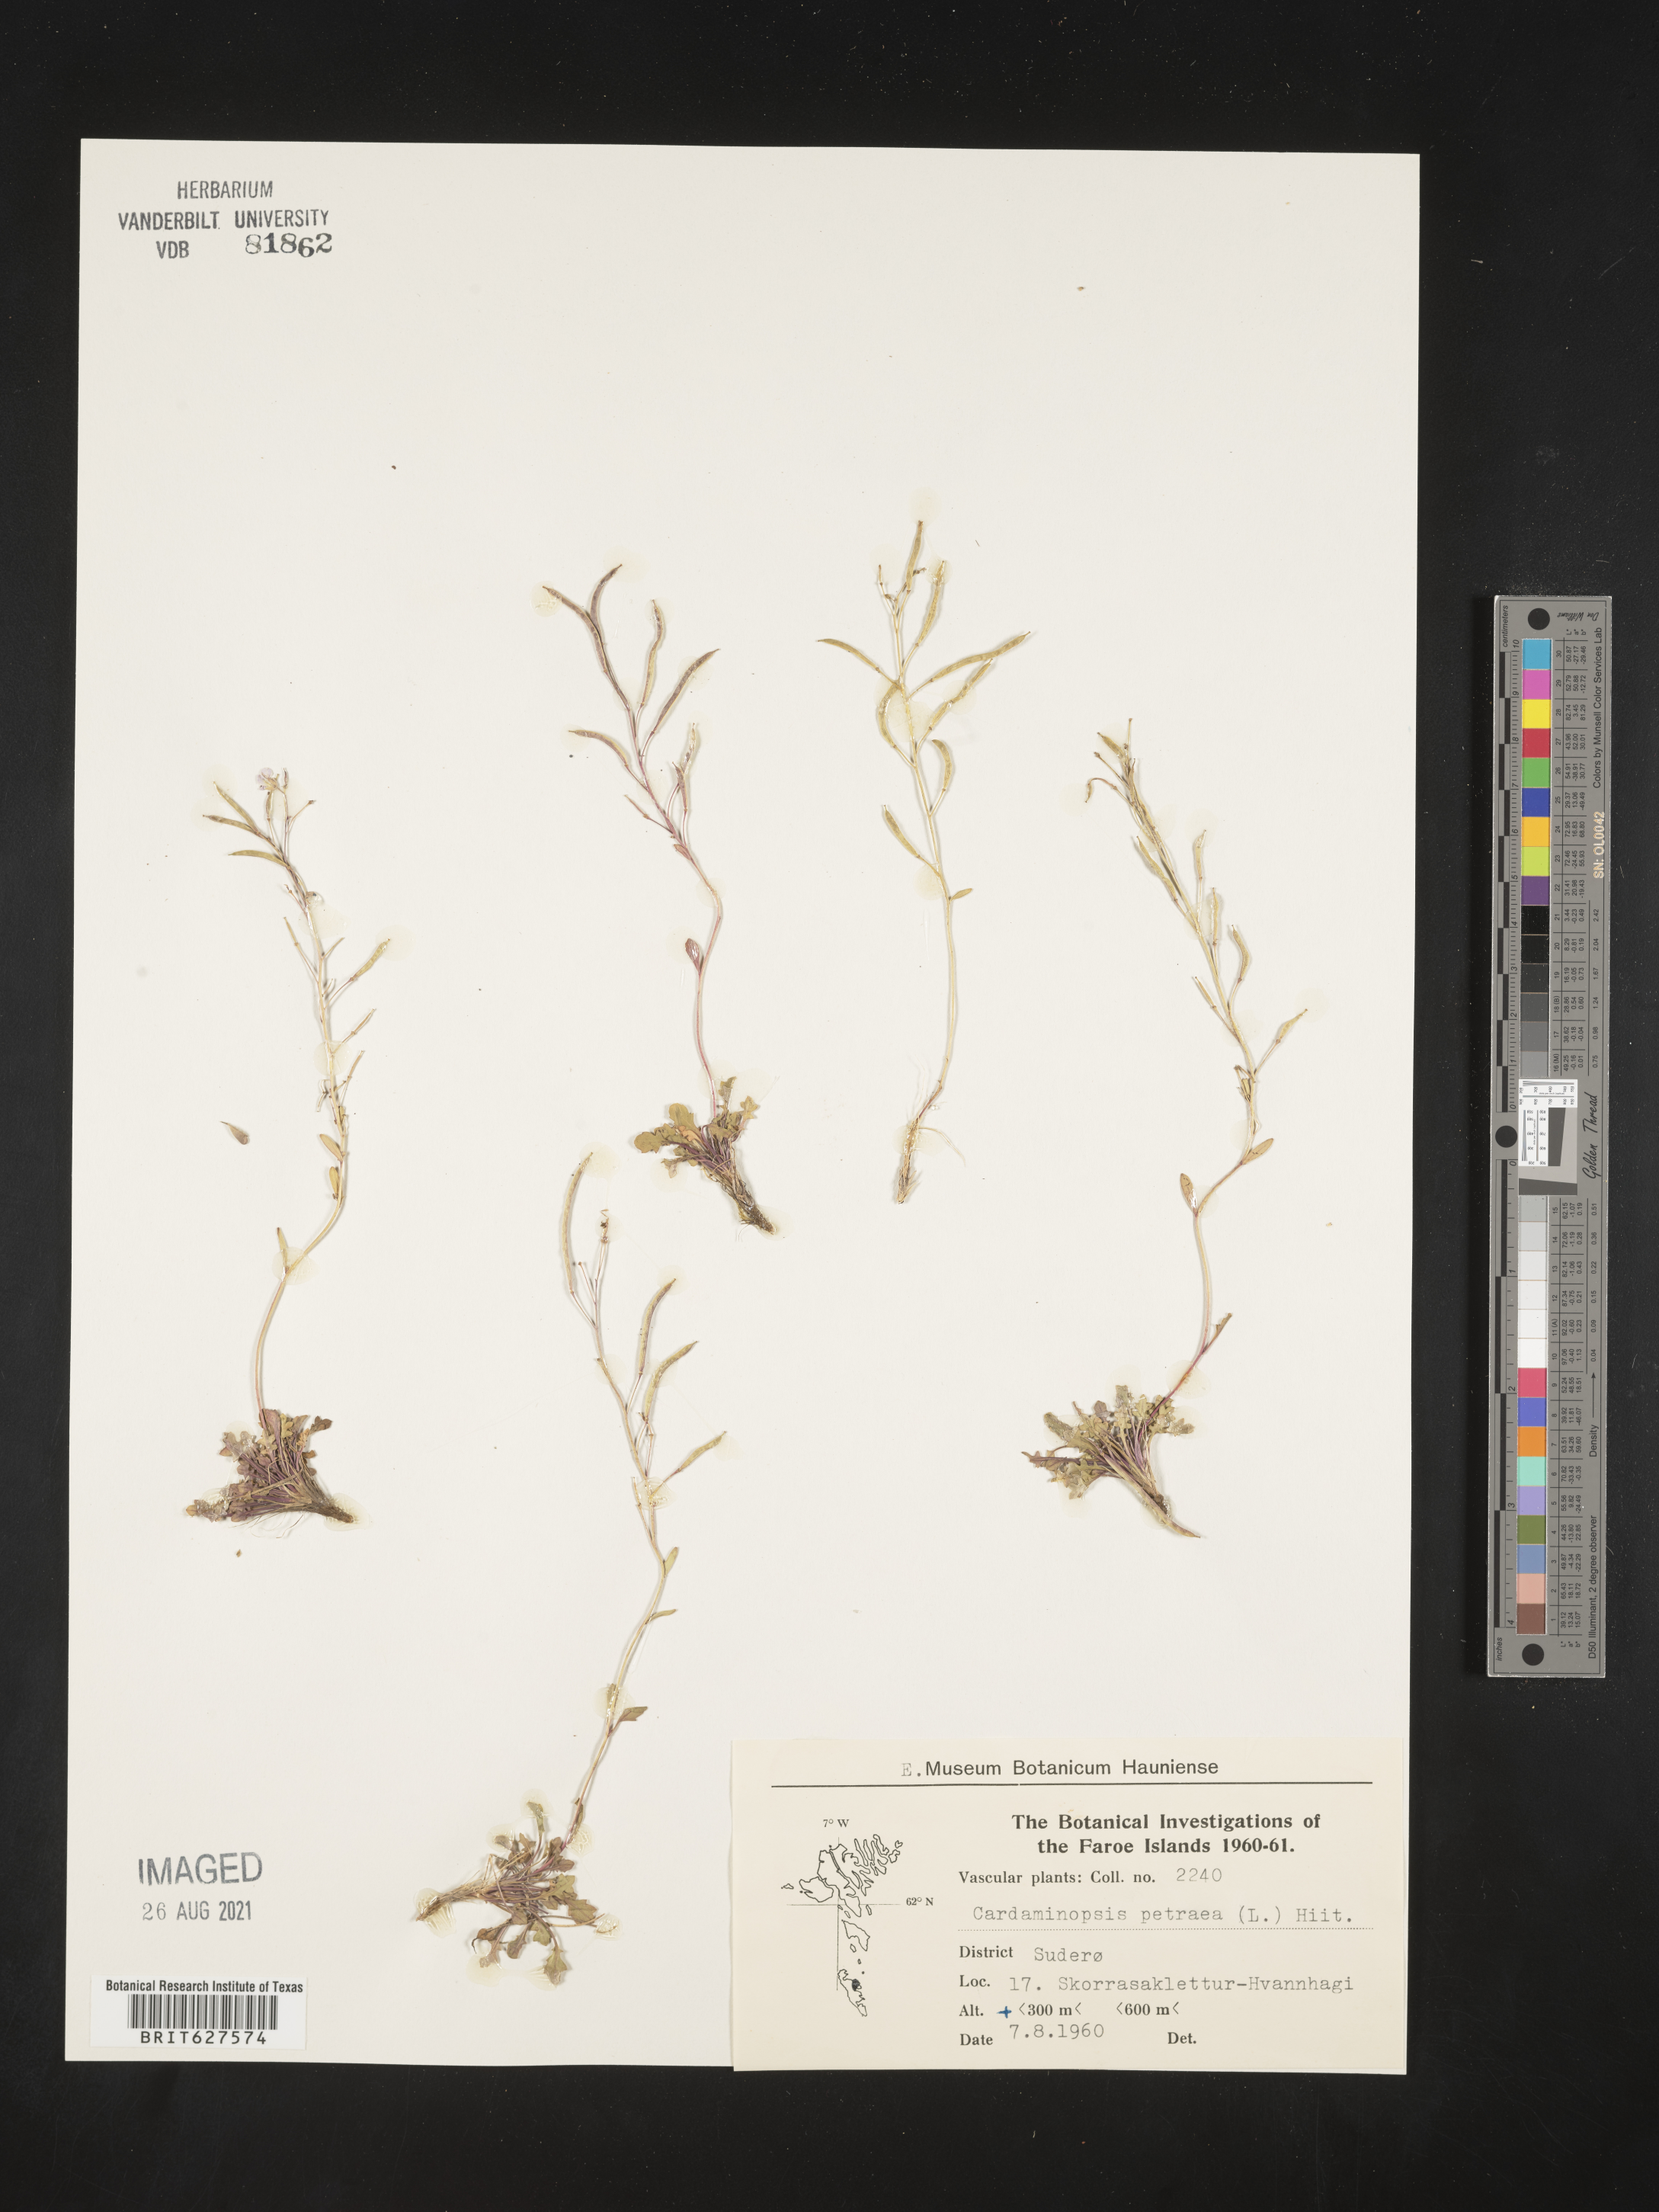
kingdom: Plantae
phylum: Tracheophyta
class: Magnoliopsida
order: Brassicales
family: Brassicaceae
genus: Arabidopsis
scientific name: Arabidopsis lyrata
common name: Lyrate rockcress
